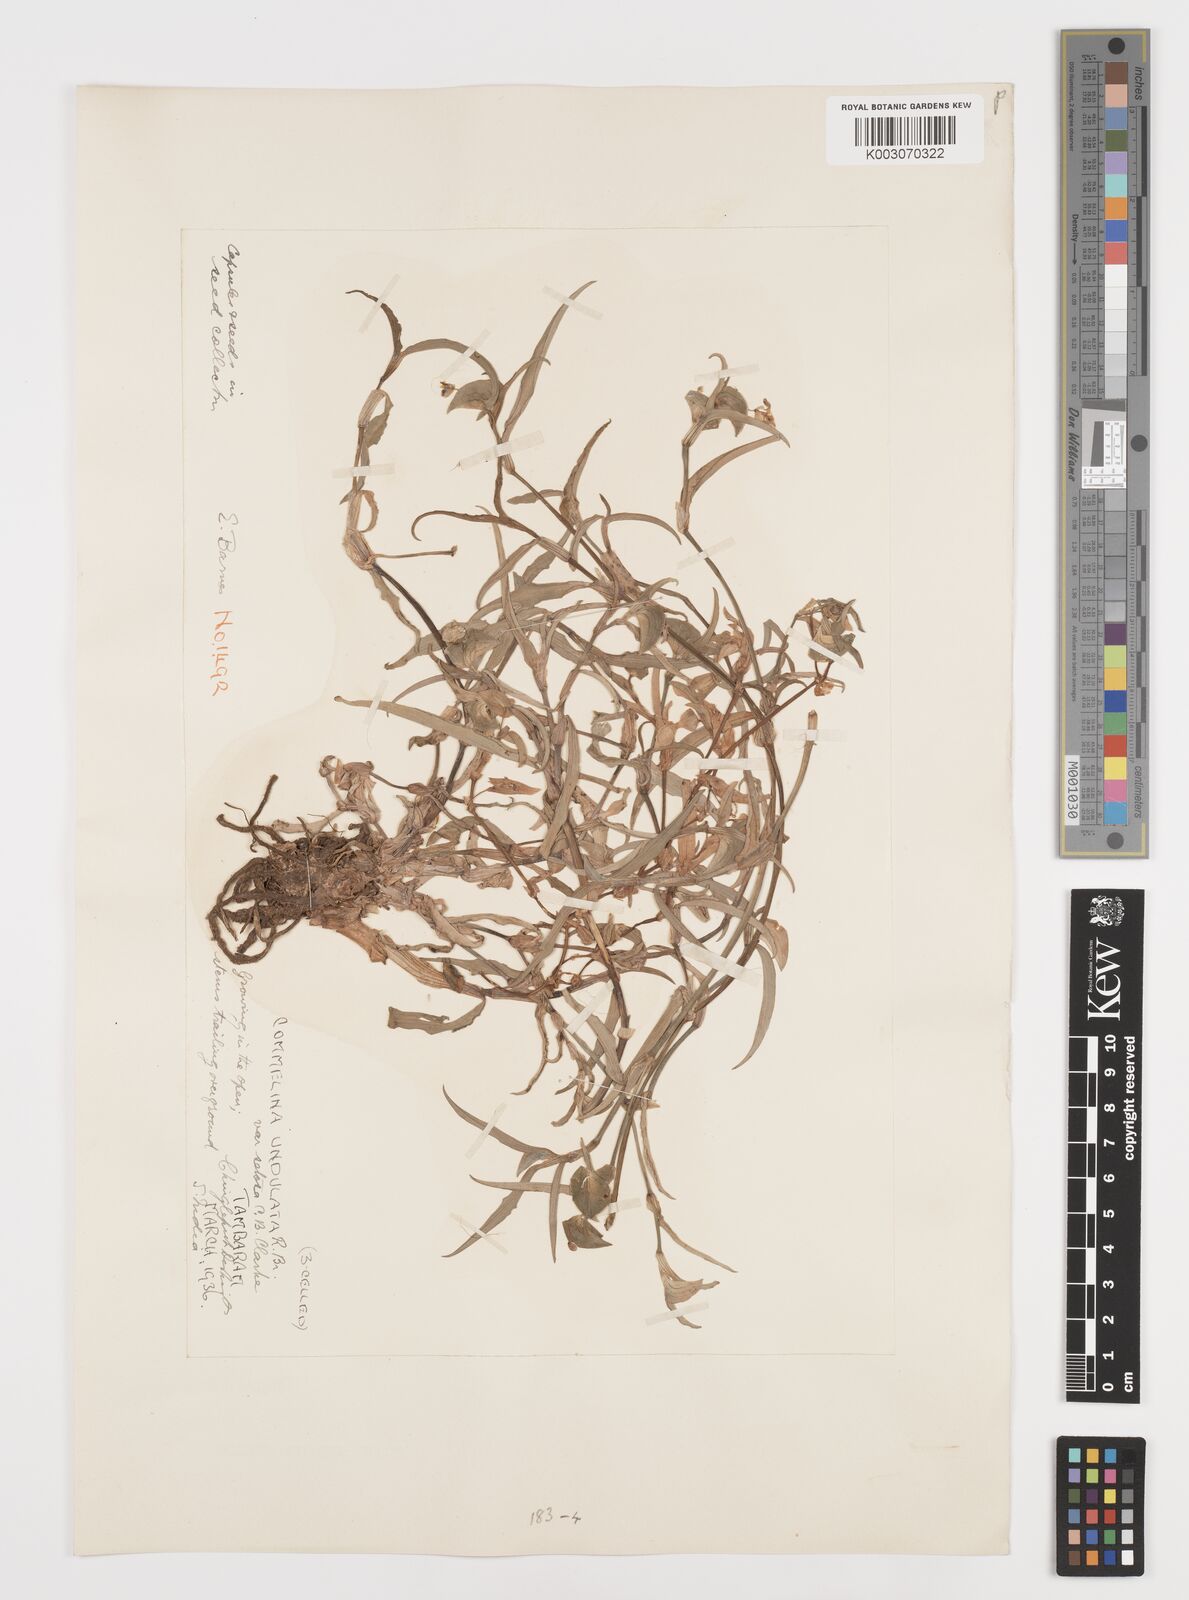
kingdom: Plantae
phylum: Tracheophyta
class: Liliopsida
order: Commelinales
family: Commelinaceae
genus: Commelina
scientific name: Commelina chamissonis
